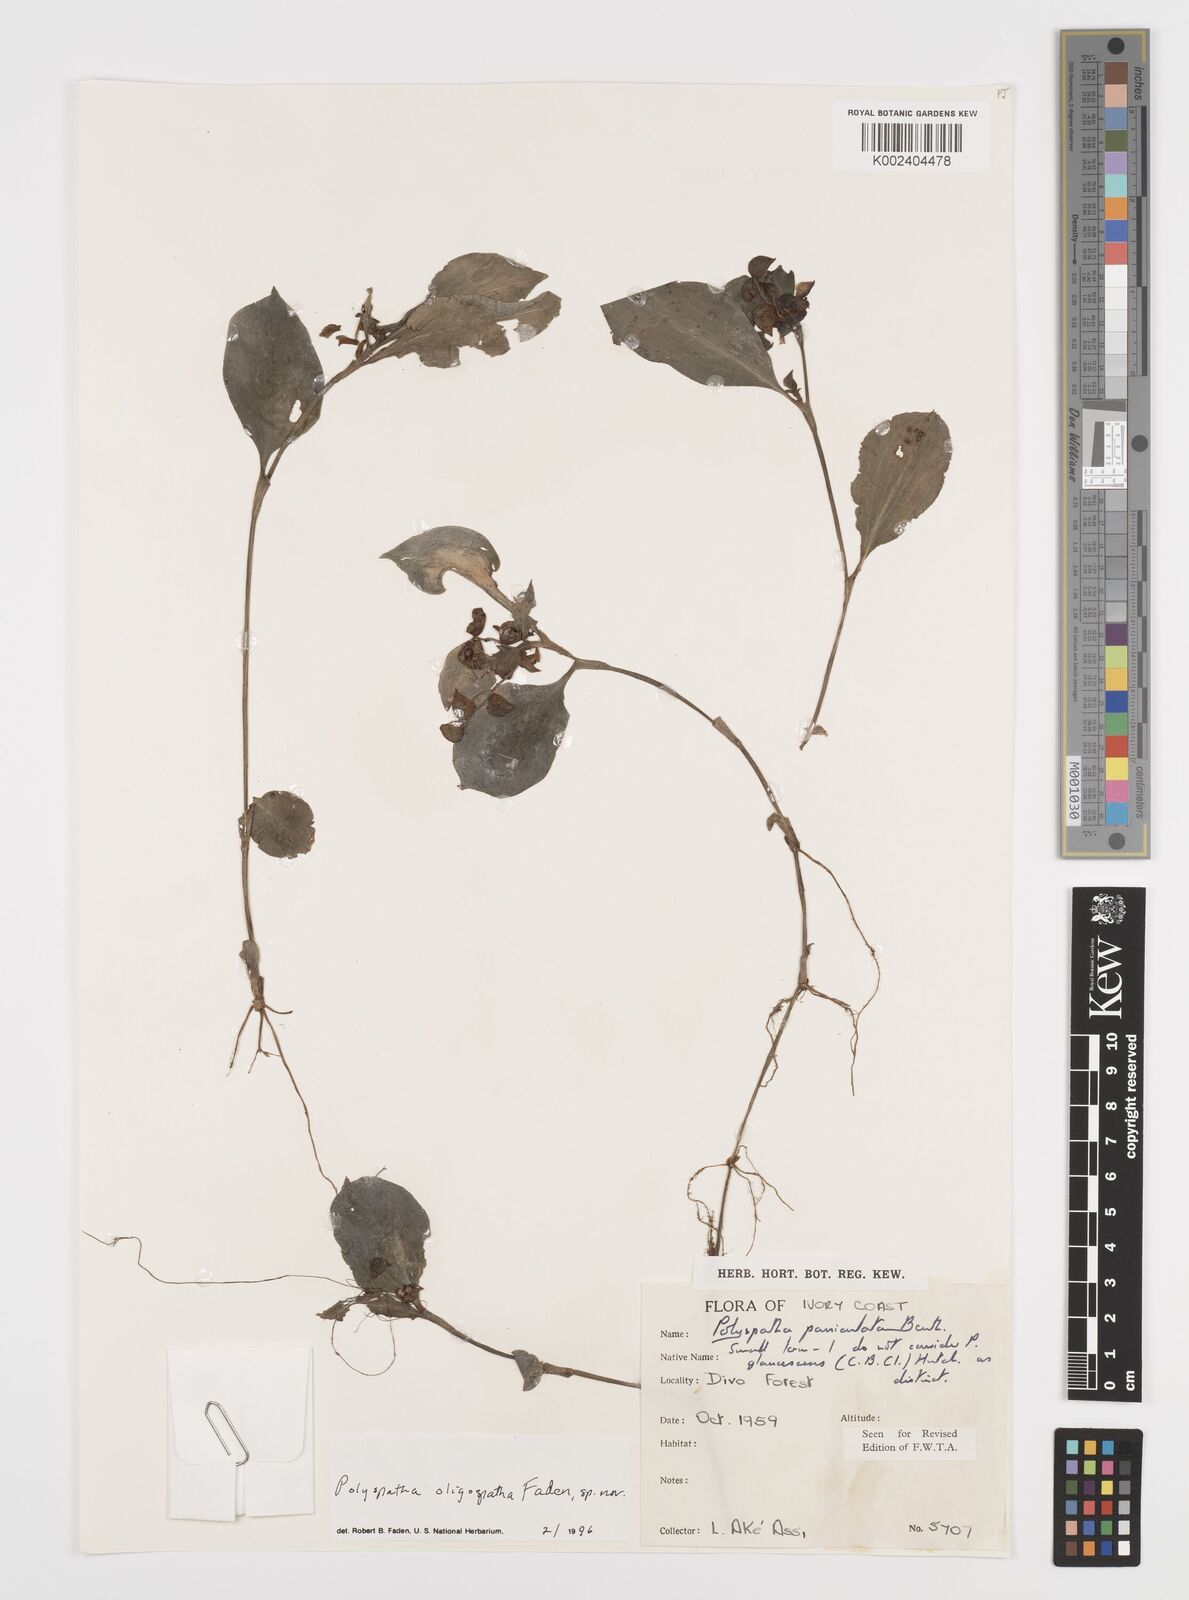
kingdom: Plantae
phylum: Tracheophyta
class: Liliopsida
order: Commelinales
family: Commelinaceae
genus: Polyspatha
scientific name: Polyspatha oligospatha
